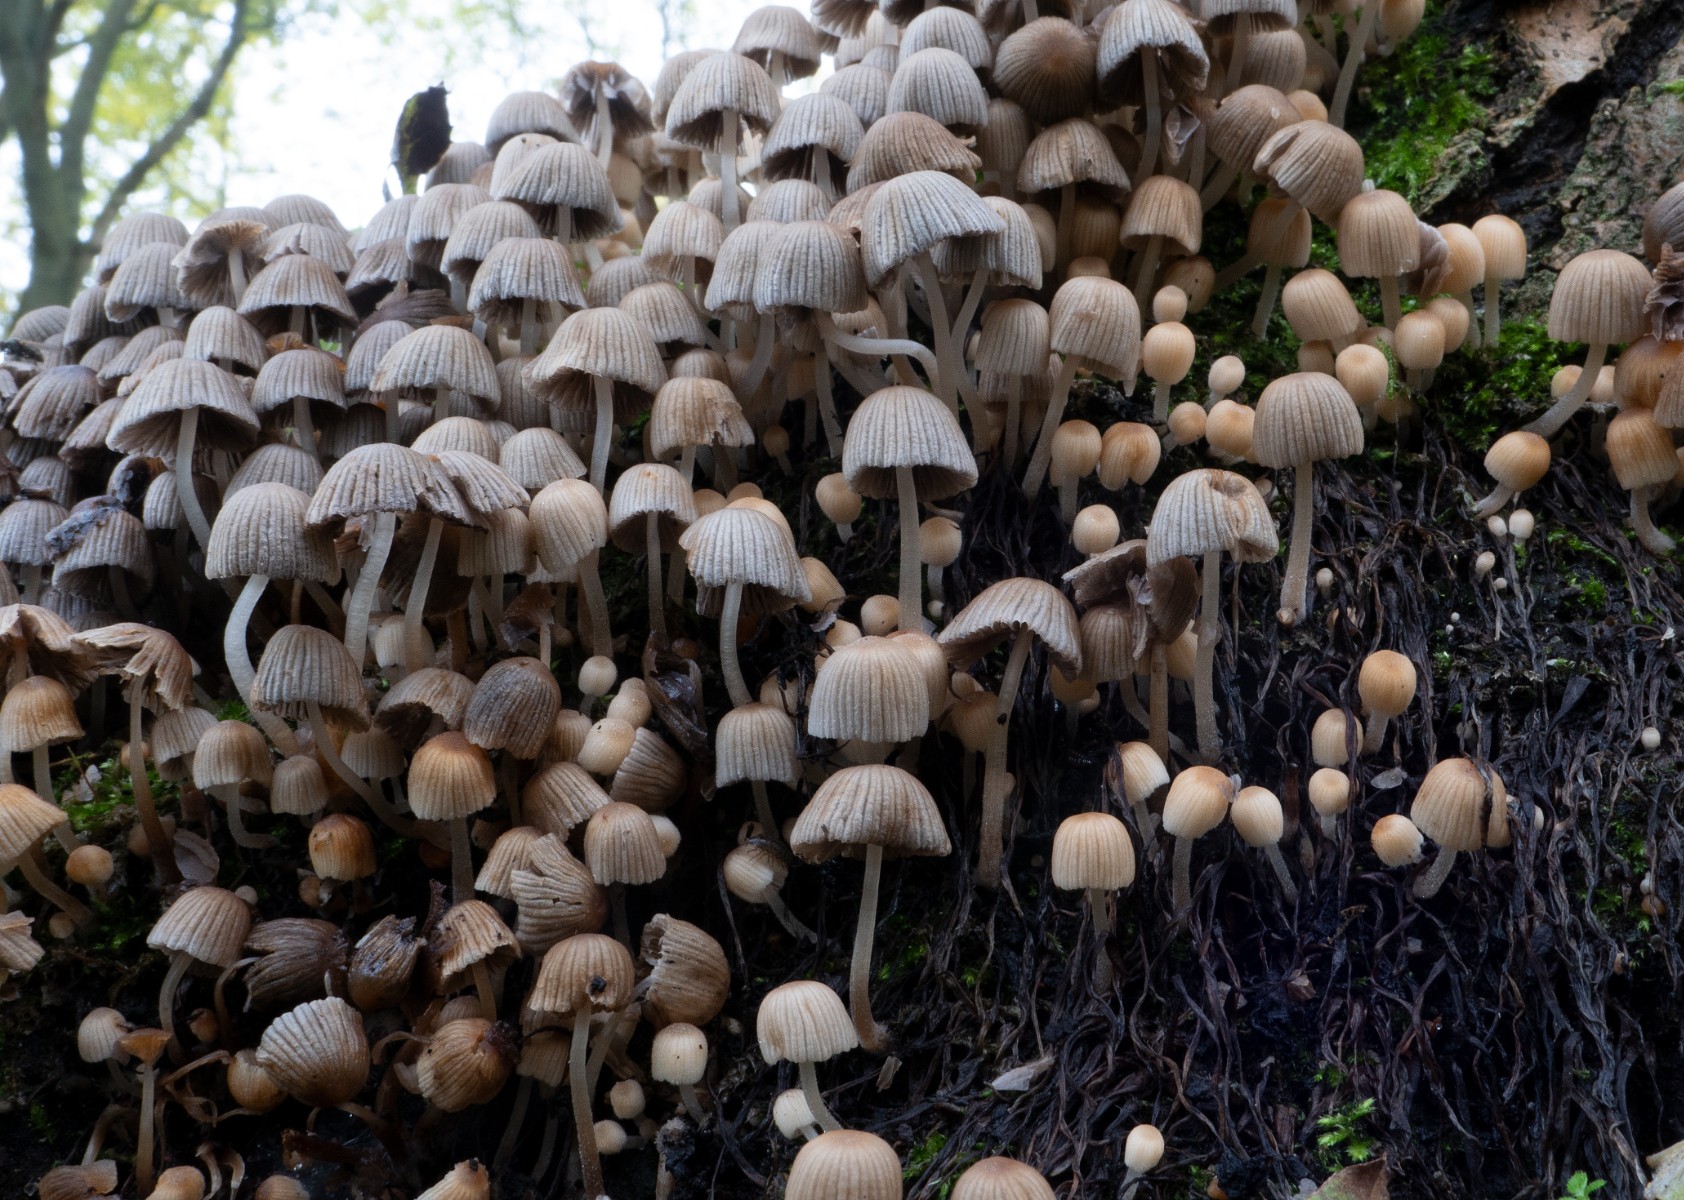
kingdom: Fungi
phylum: Basidiomycota
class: Agaricomycetes
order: Agaricales
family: Psathyrellaceae
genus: Coprinellus
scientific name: Coprinellus disseminatus
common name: bredsået blækhat
